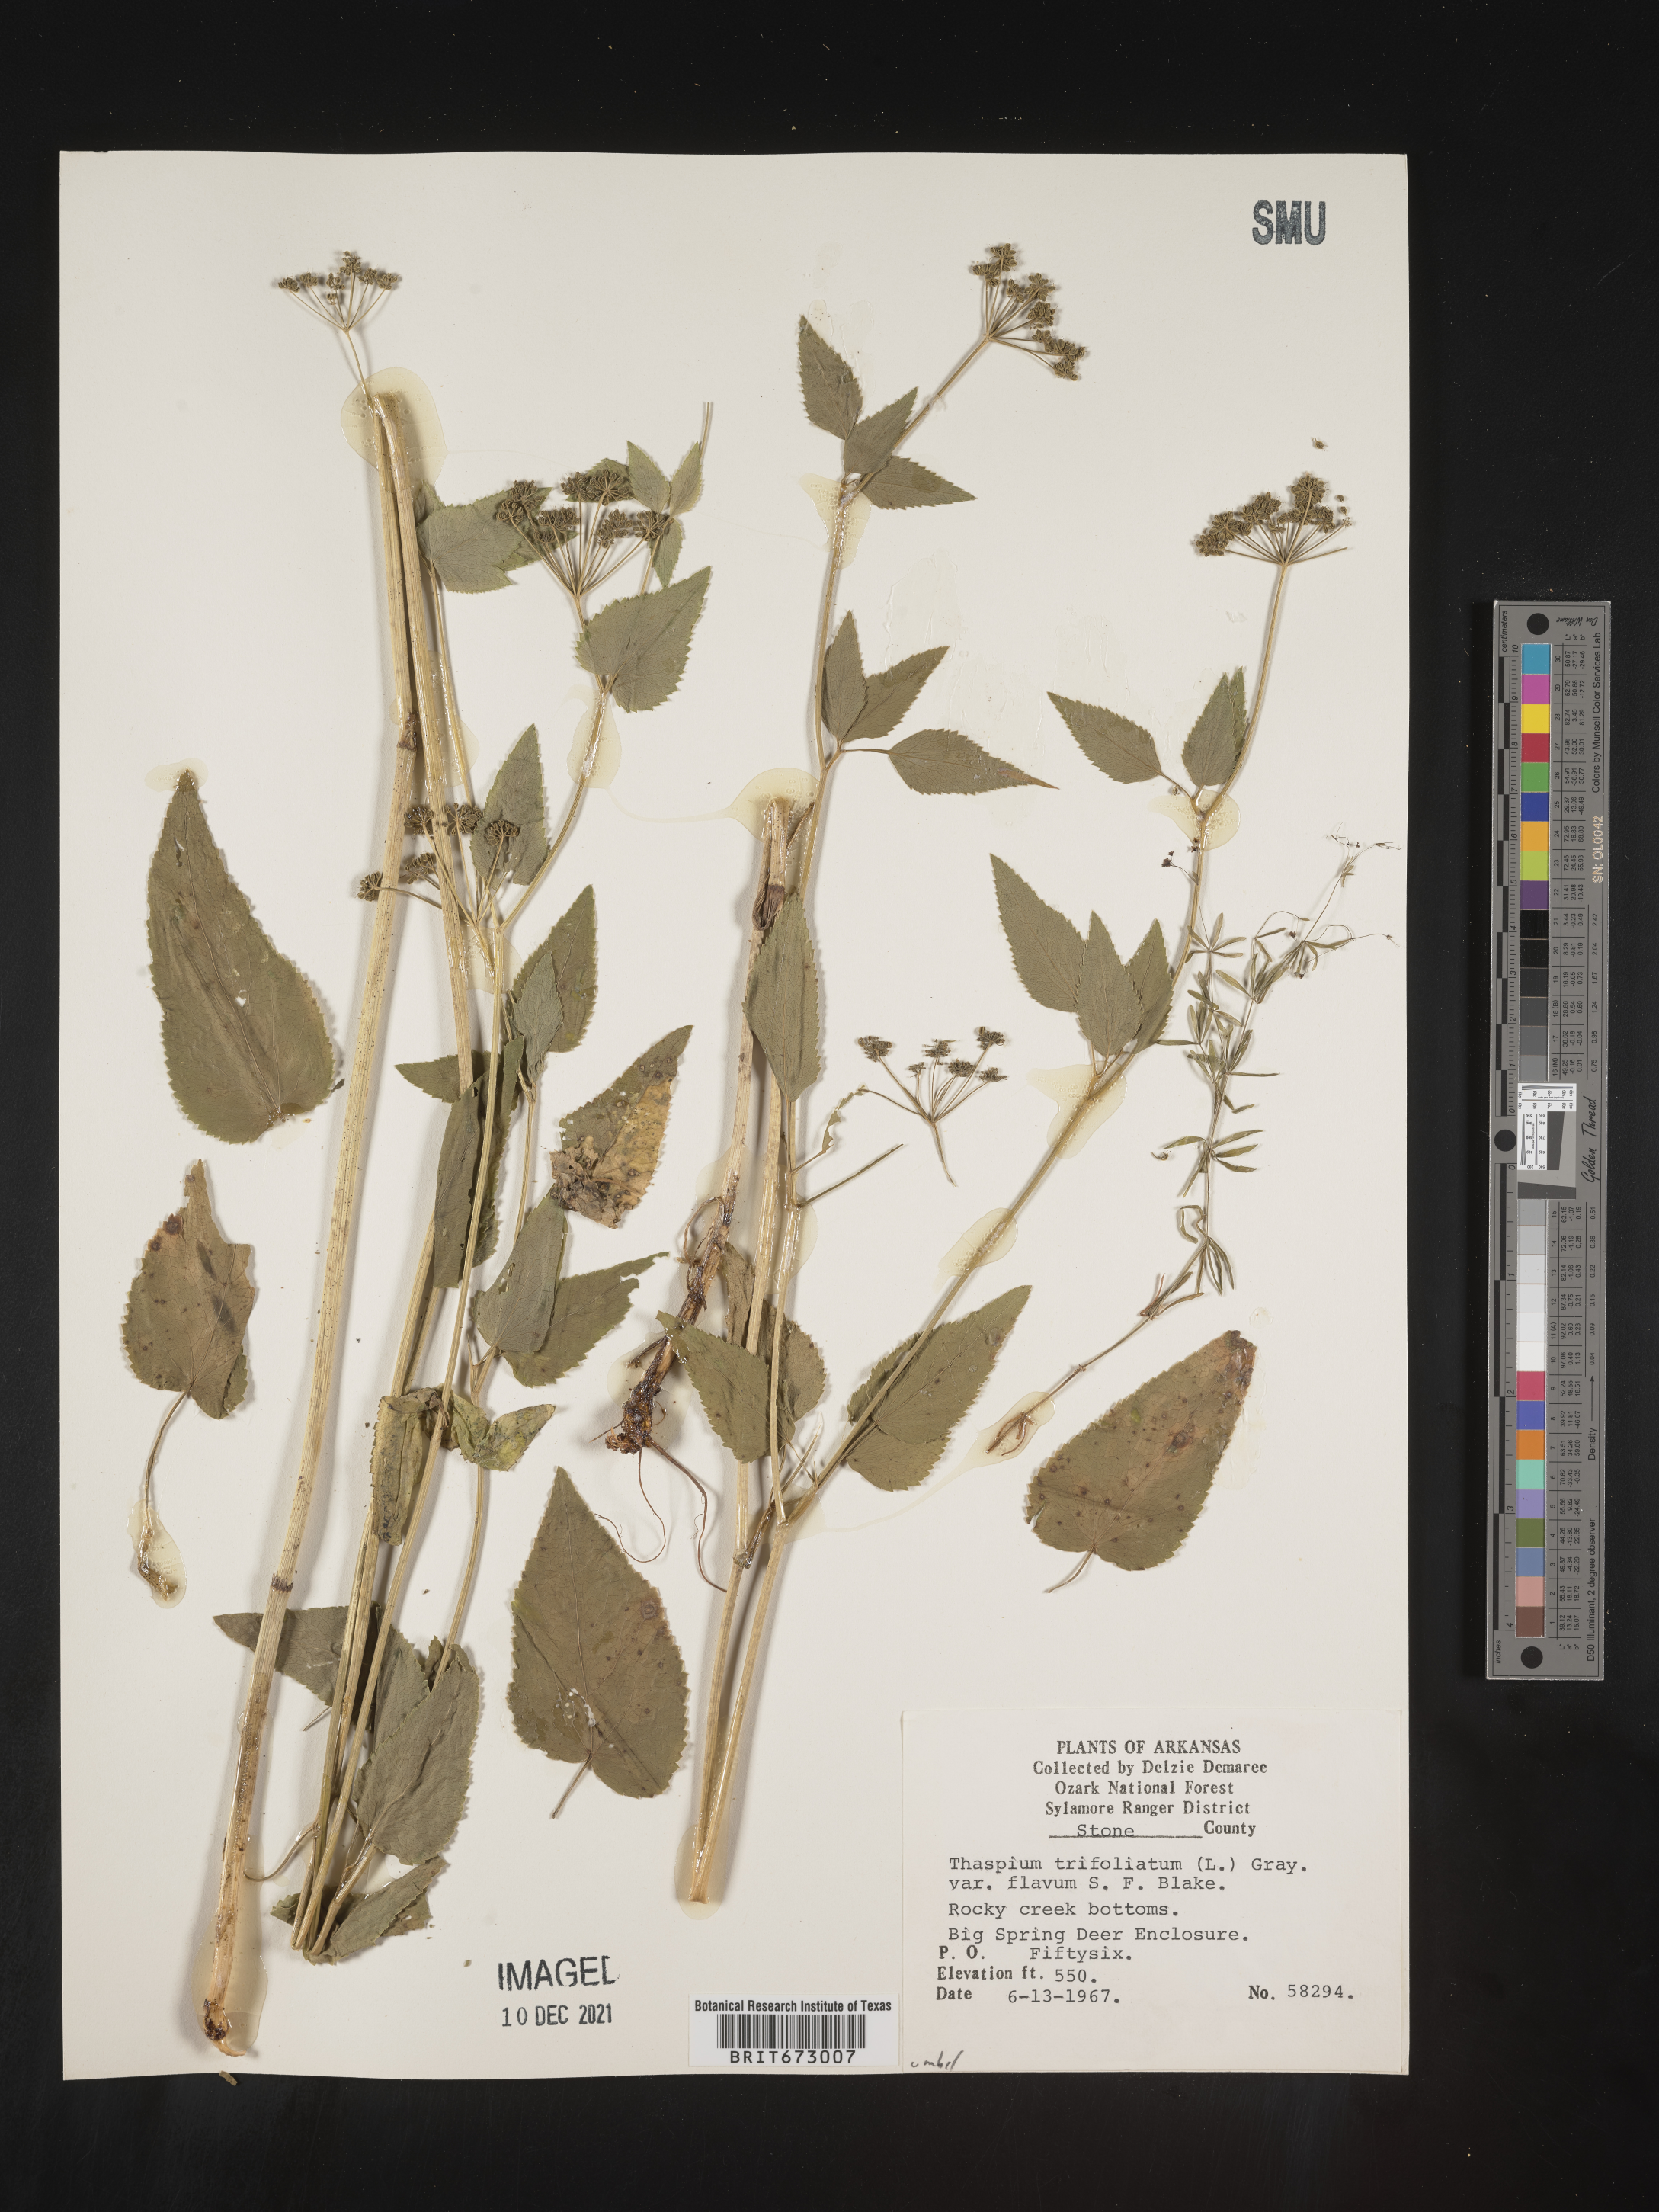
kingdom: Plantae
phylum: Tracheophyta
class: Magnoliopsida
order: Apiales
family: Apiaceae
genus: Thaspium
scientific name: Thaspium
